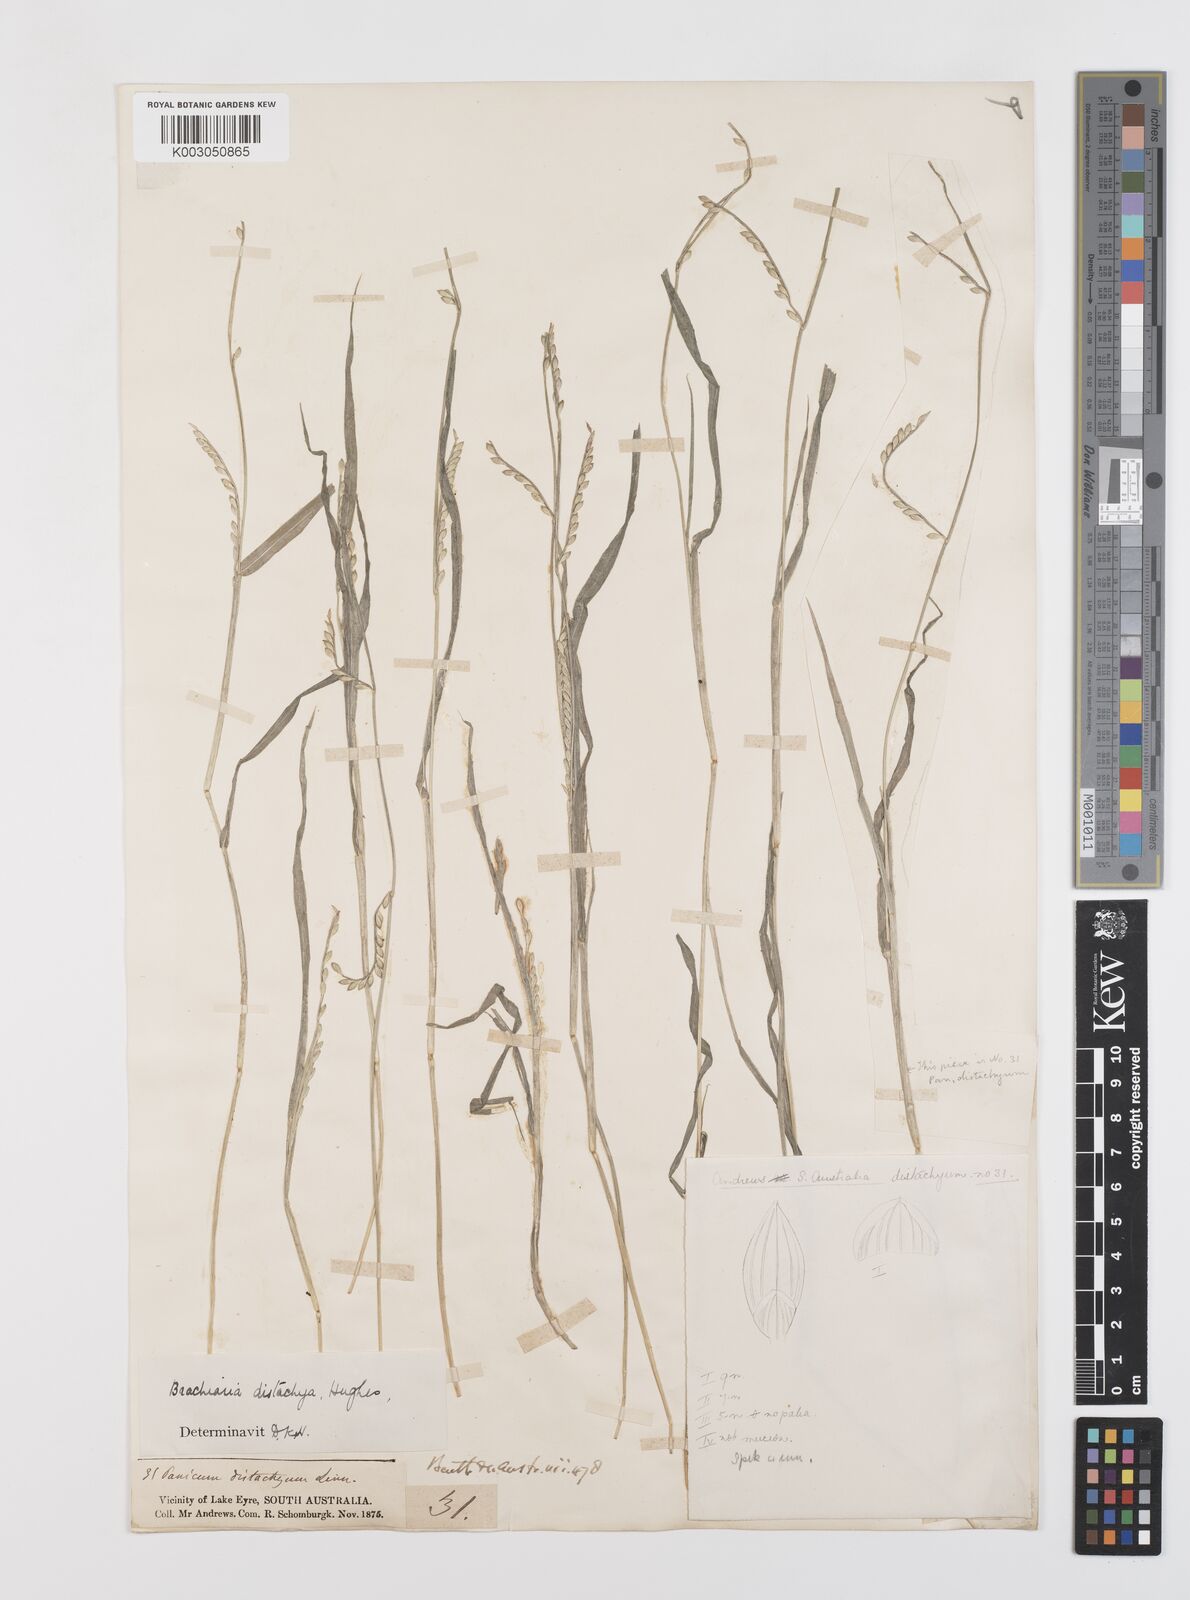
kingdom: Plantae
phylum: Tracheophyta
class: Liliopsida
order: Poales
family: Poaceae
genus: Urochloa
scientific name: Urochloa subquadripara
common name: Armgrass millet
